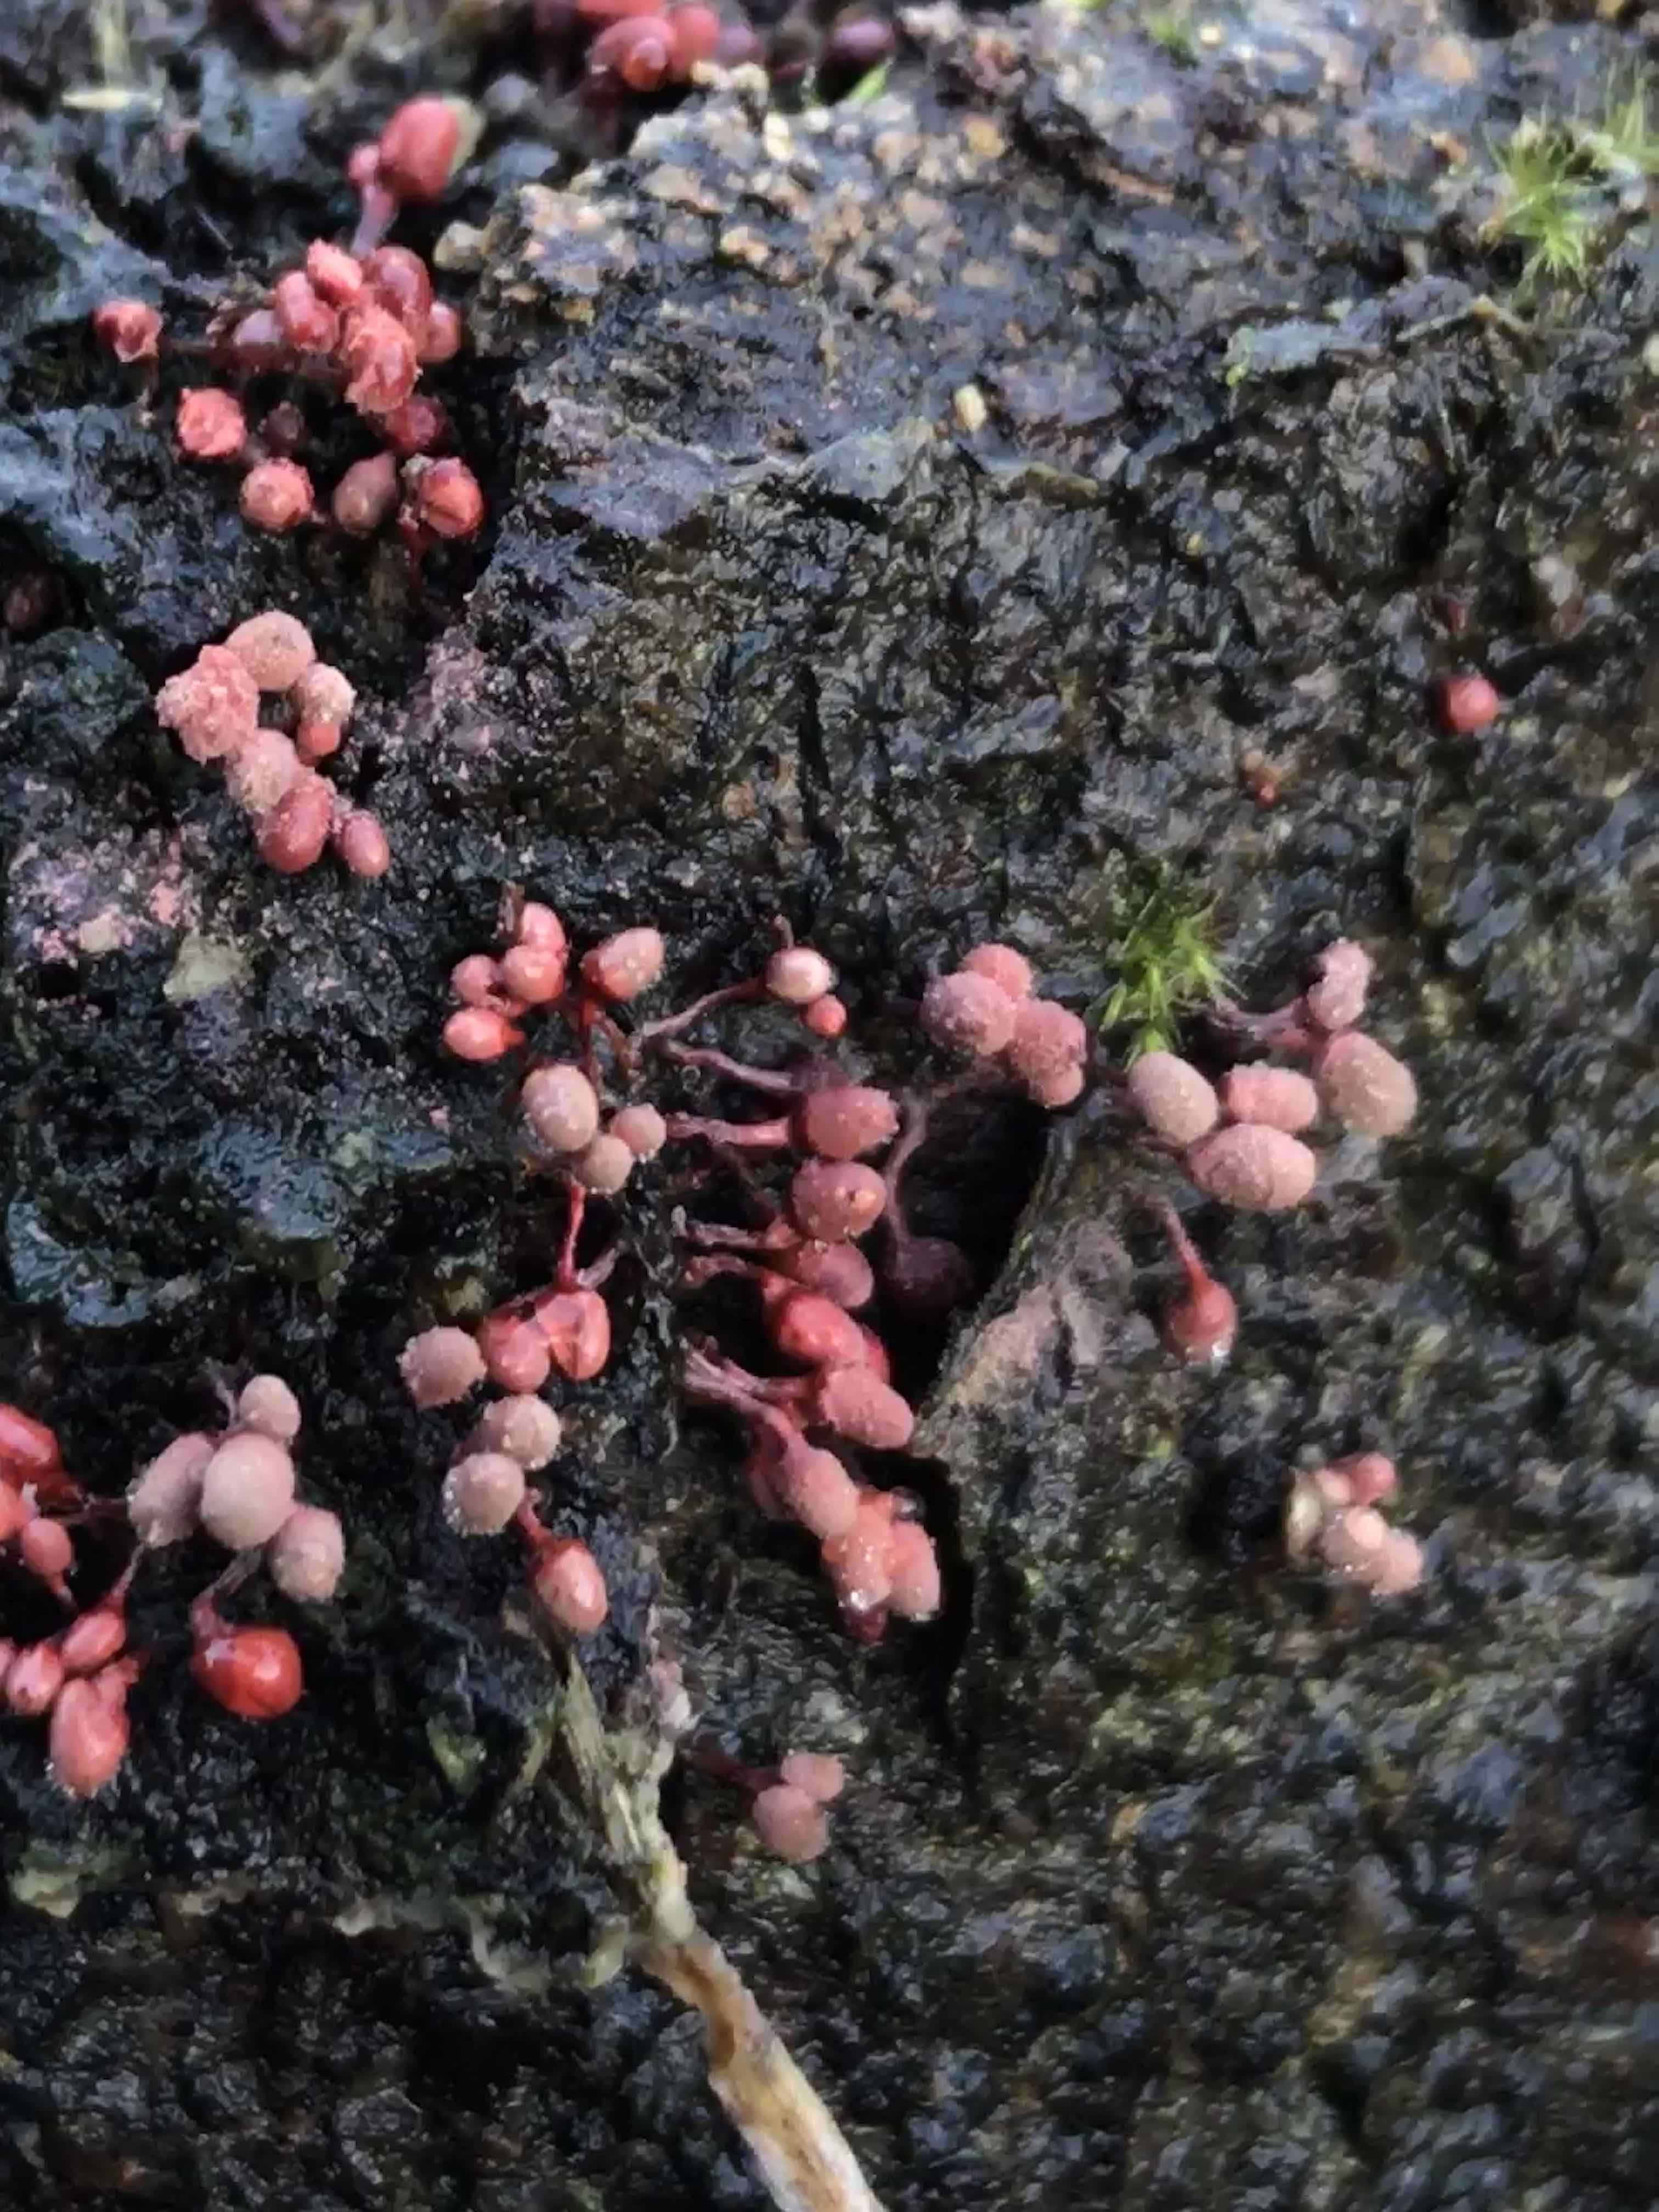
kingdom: Protozoa
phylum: Mycetozoa
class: Myxomycetes
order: Trichiales
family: Arcyriaceae
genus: Arcyria
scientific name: Arcyria denudata
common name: karminrød skålsvøb
